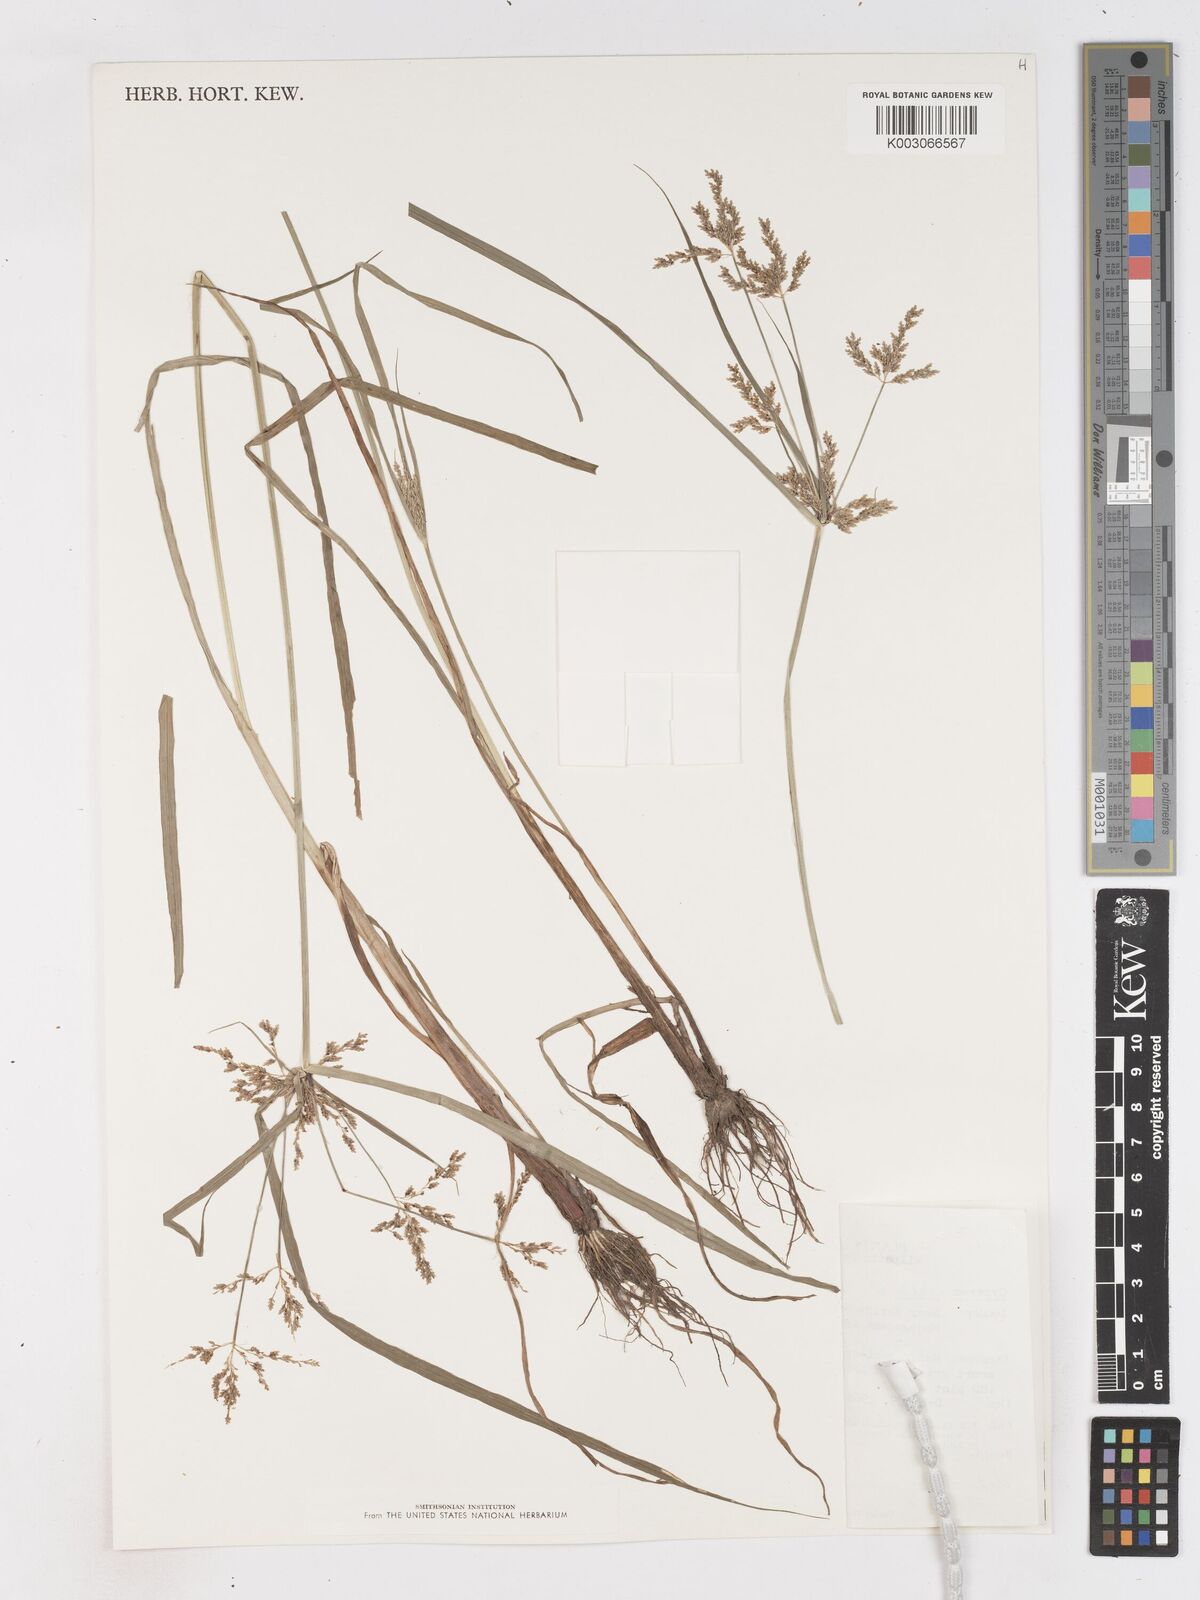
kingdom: Plantae
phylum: Tracheophyta
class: Liliopsida
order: Poales
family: Cyperaceae
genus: Cyperus
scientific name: Cyperus iria
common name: Ricefield flatsedge
